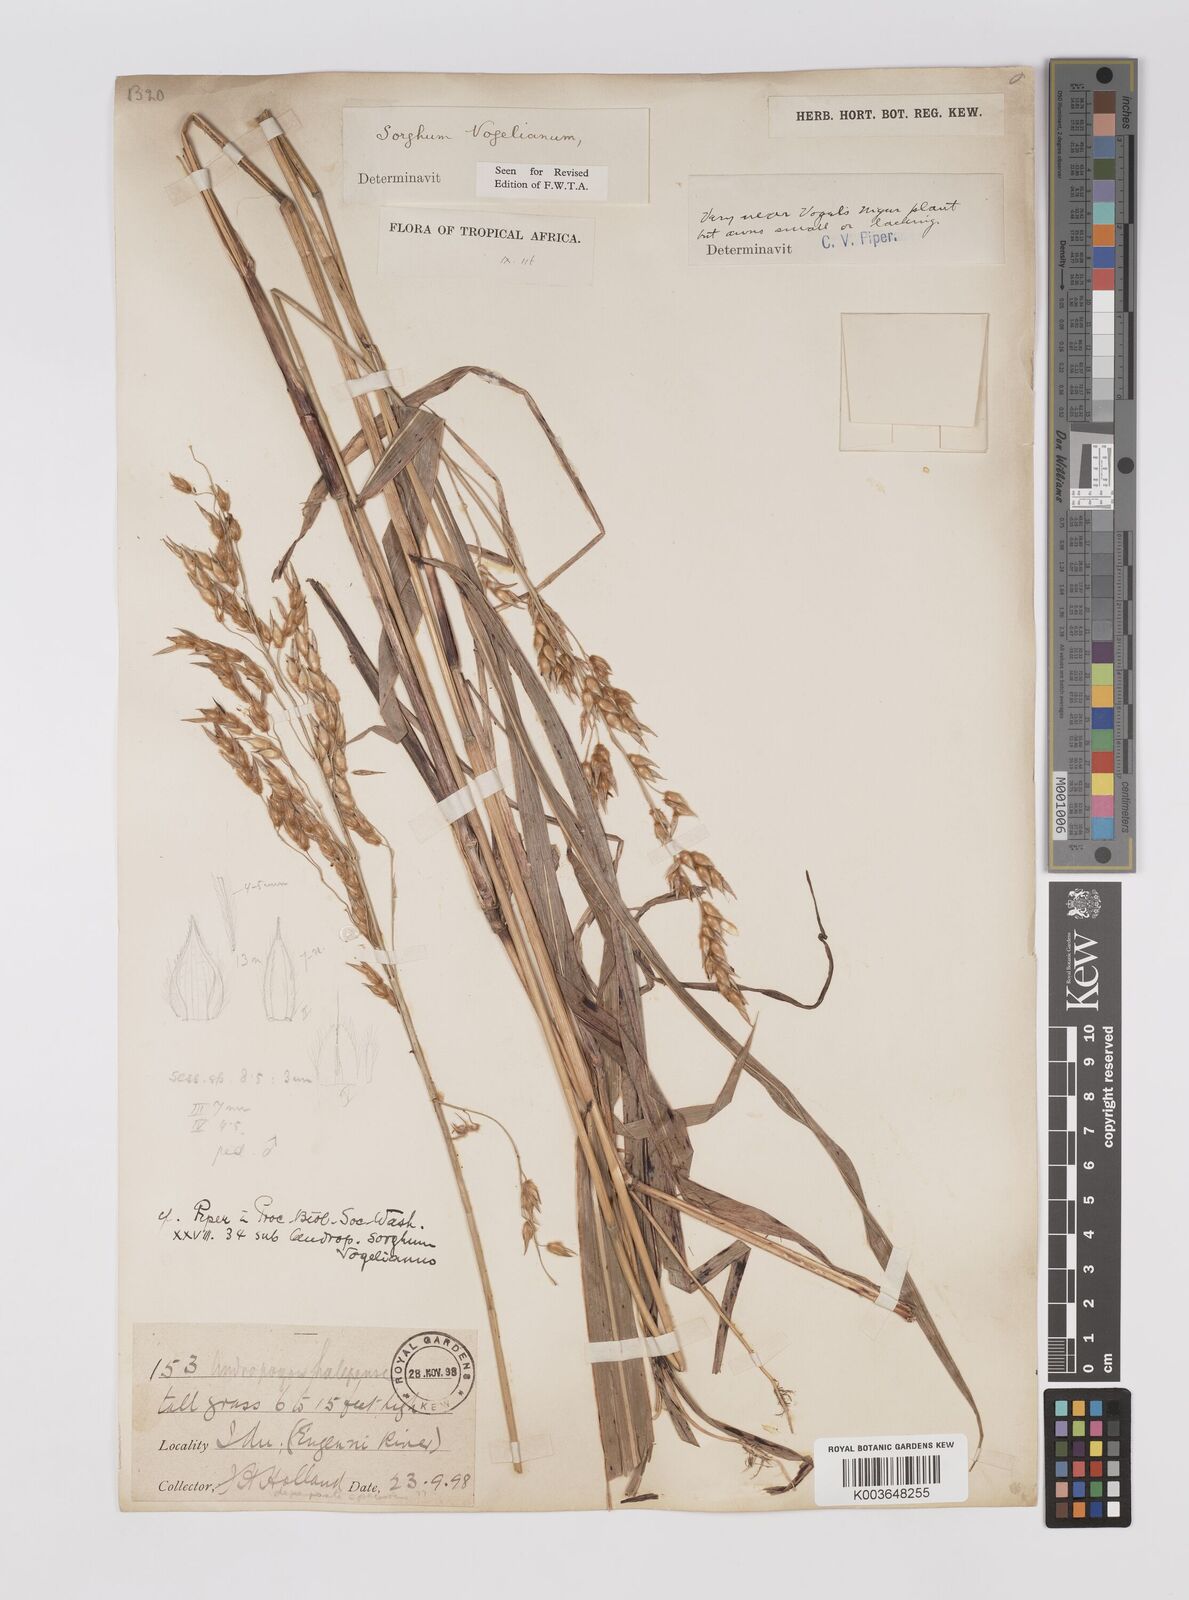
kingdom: Plantae
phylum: Tracheophyta
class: Liliopsida
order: Poales
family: Poaceae
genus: Sorghum
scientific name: Sorghum arundinaceum
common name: Sorghum
